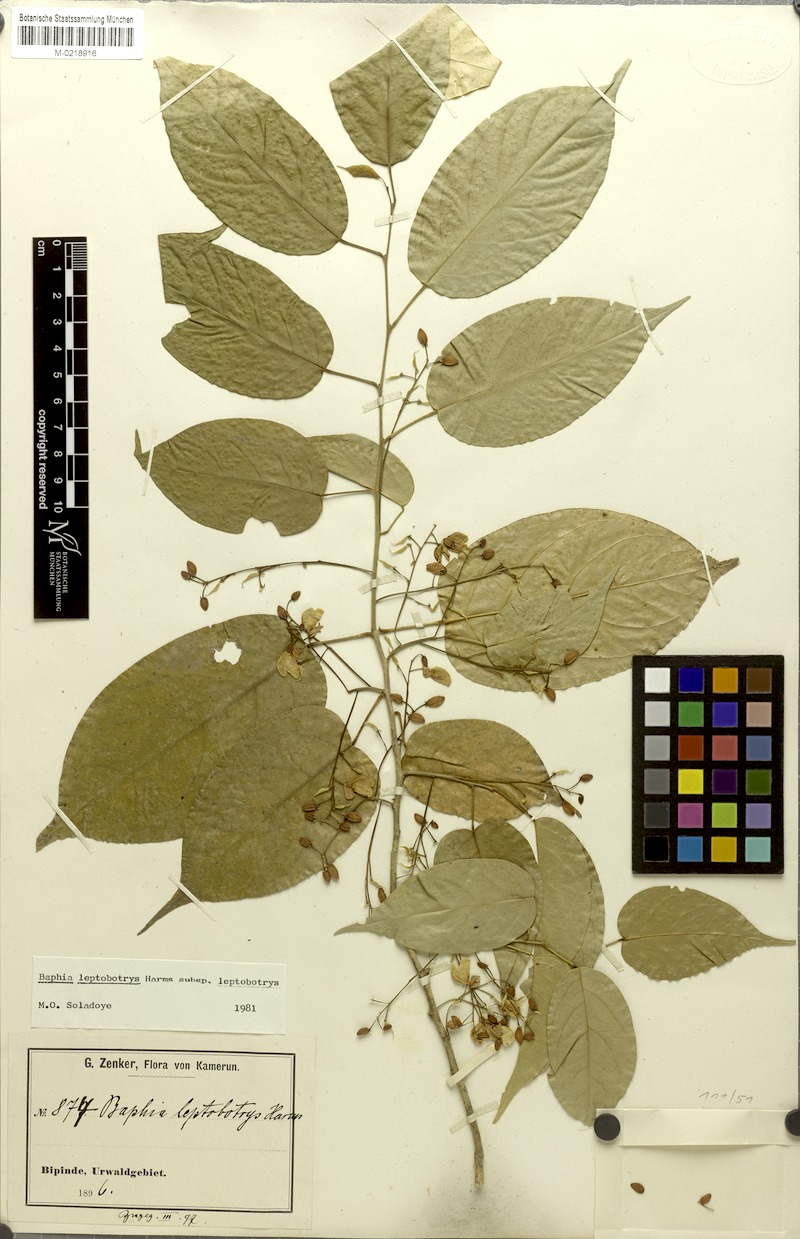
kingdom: Plantae
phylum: Tracheophyta
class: Magnoliopsida
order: Fabales
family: Fabaceae
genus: Baphia
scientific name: Baphia leptobotrys
